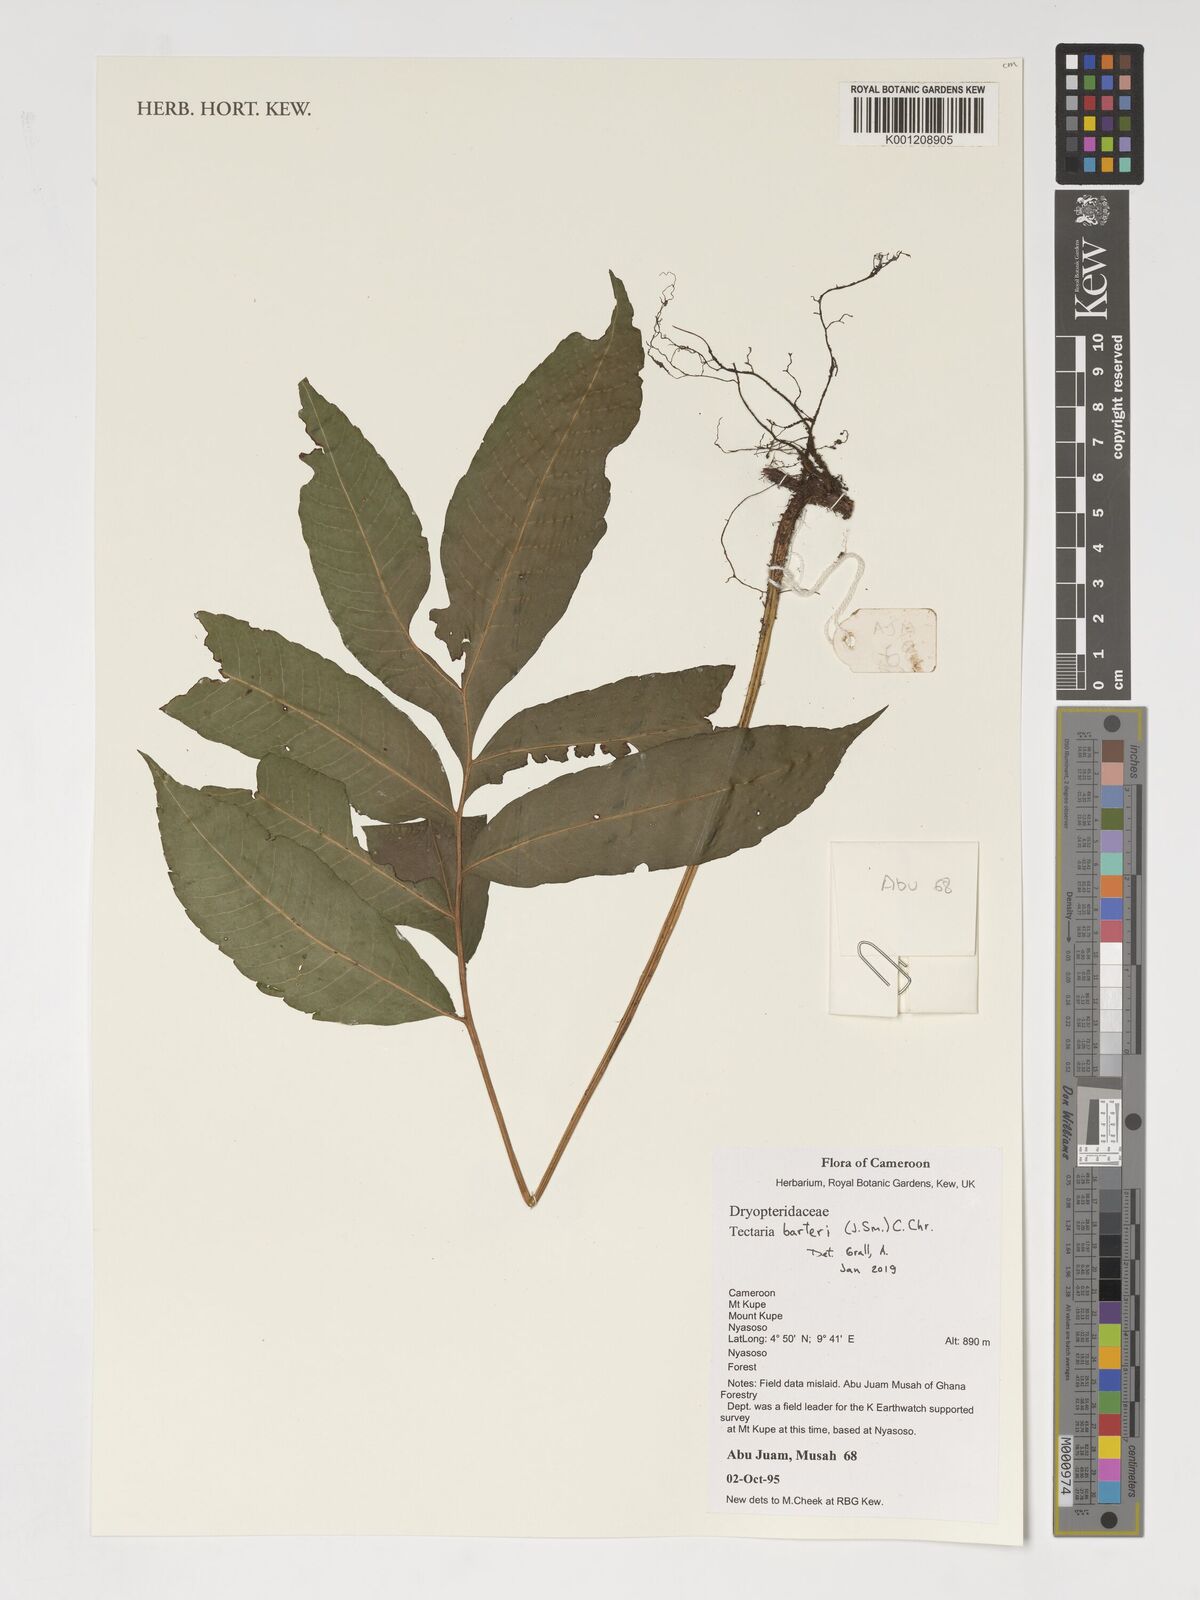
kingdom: Plantae
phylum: Tracheophyta
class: Polypodiopsida
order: Polypodiales
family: Tectariaceae
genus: Tectaria
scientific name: Tectaria barteri
